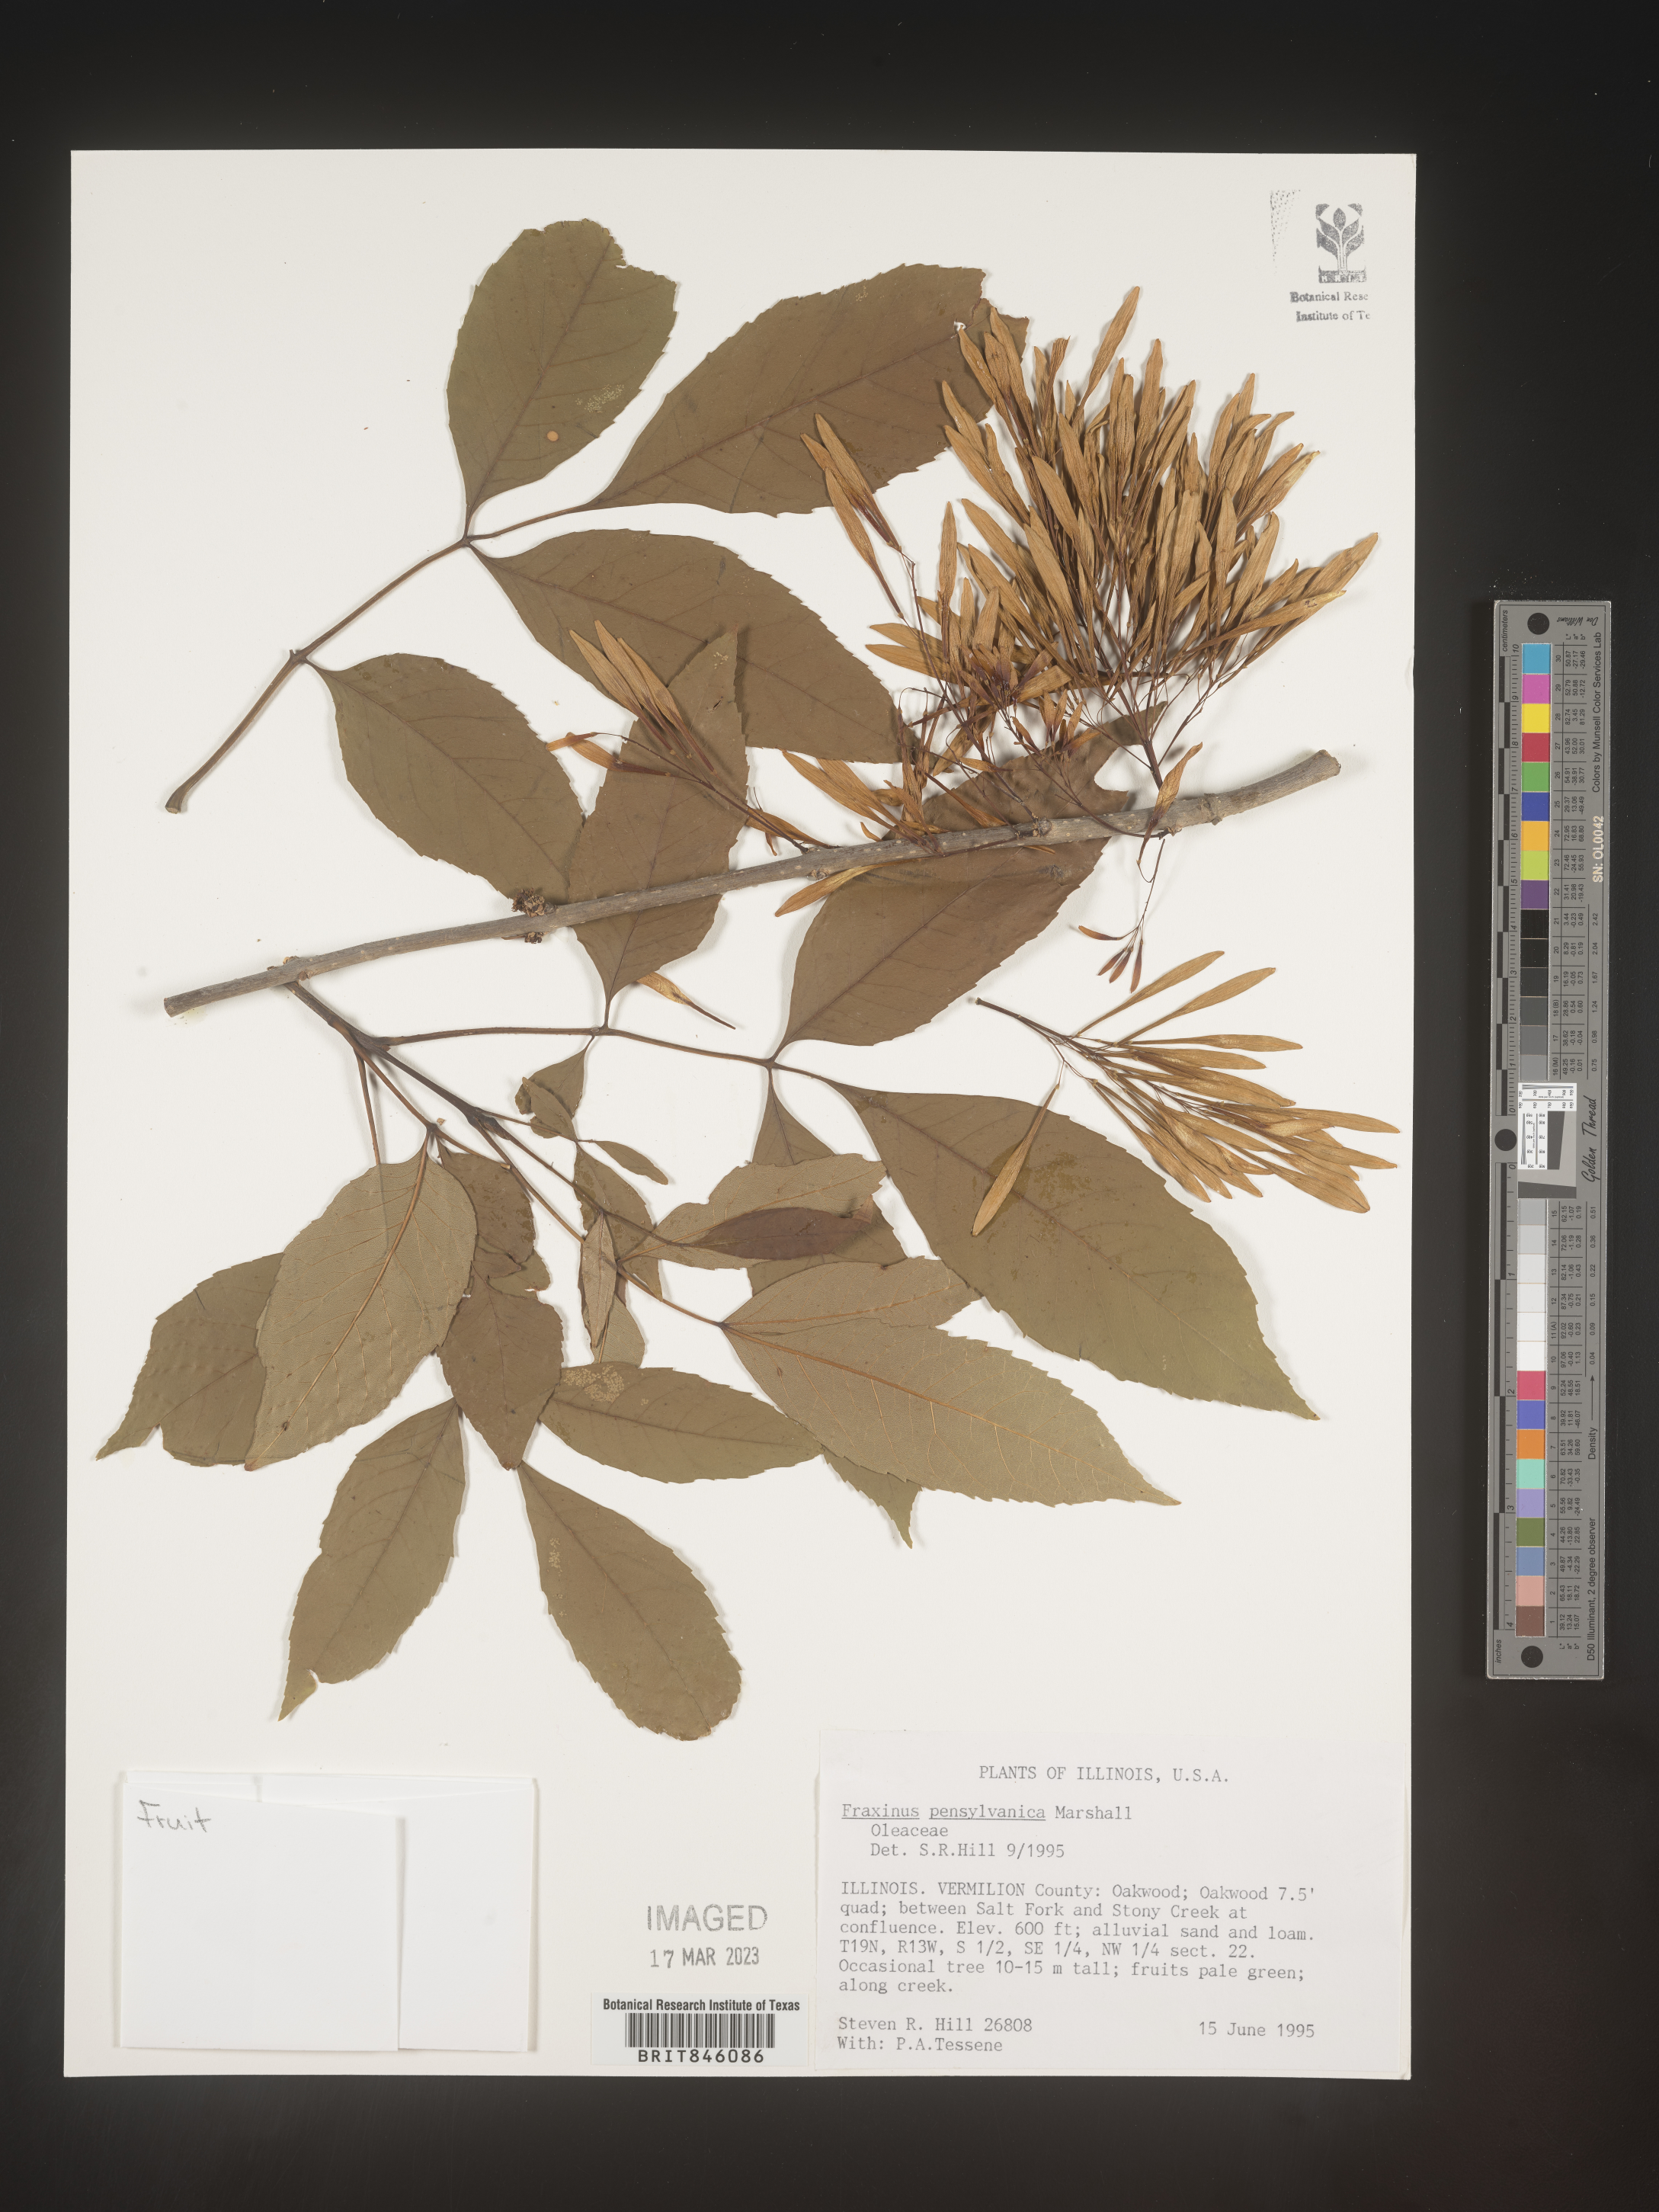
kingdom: Plantae
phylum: Tracheophyta
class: Magnoliopsida
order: Lamiales
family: Oleaceae
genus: Fraxinus
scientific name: Fraxinus pennsylvanica
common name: Green ash
